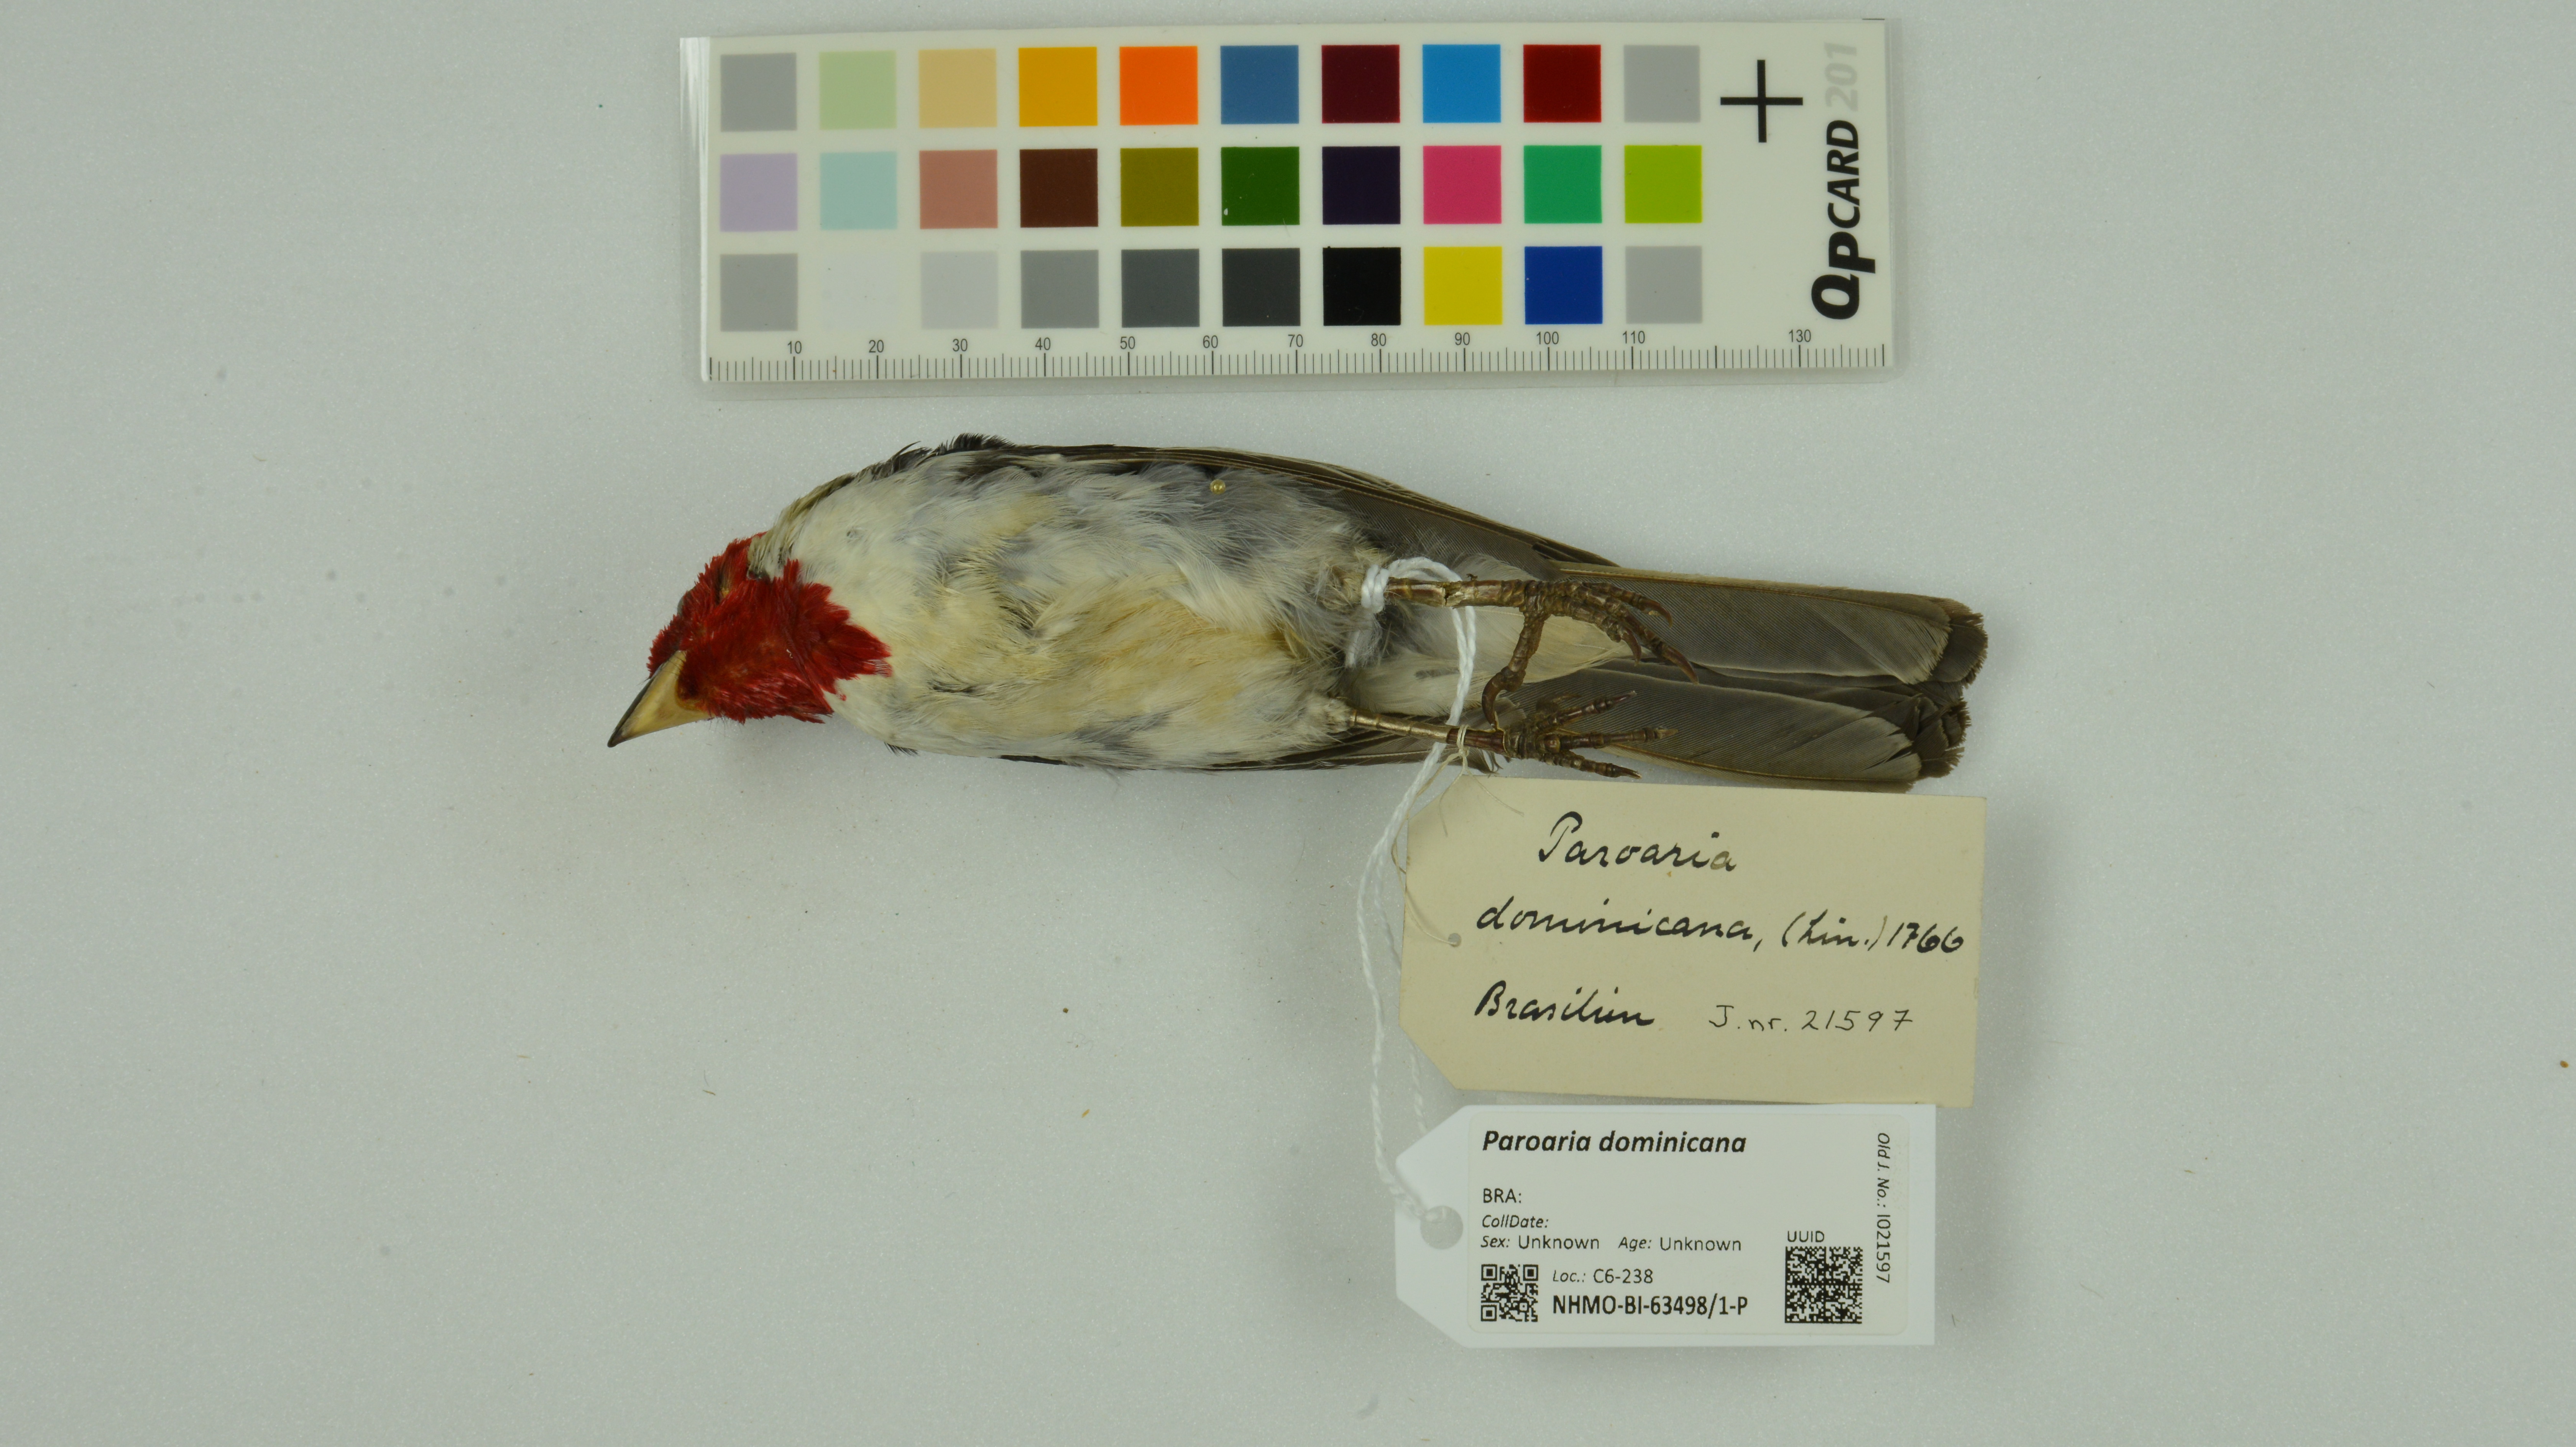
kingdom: Animalia
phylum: Chordata
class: Aves
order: Passeriformes
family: Thraupidae
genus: Paroaria
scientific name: Paroaria dominicana
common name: Red-cowled cardinal
